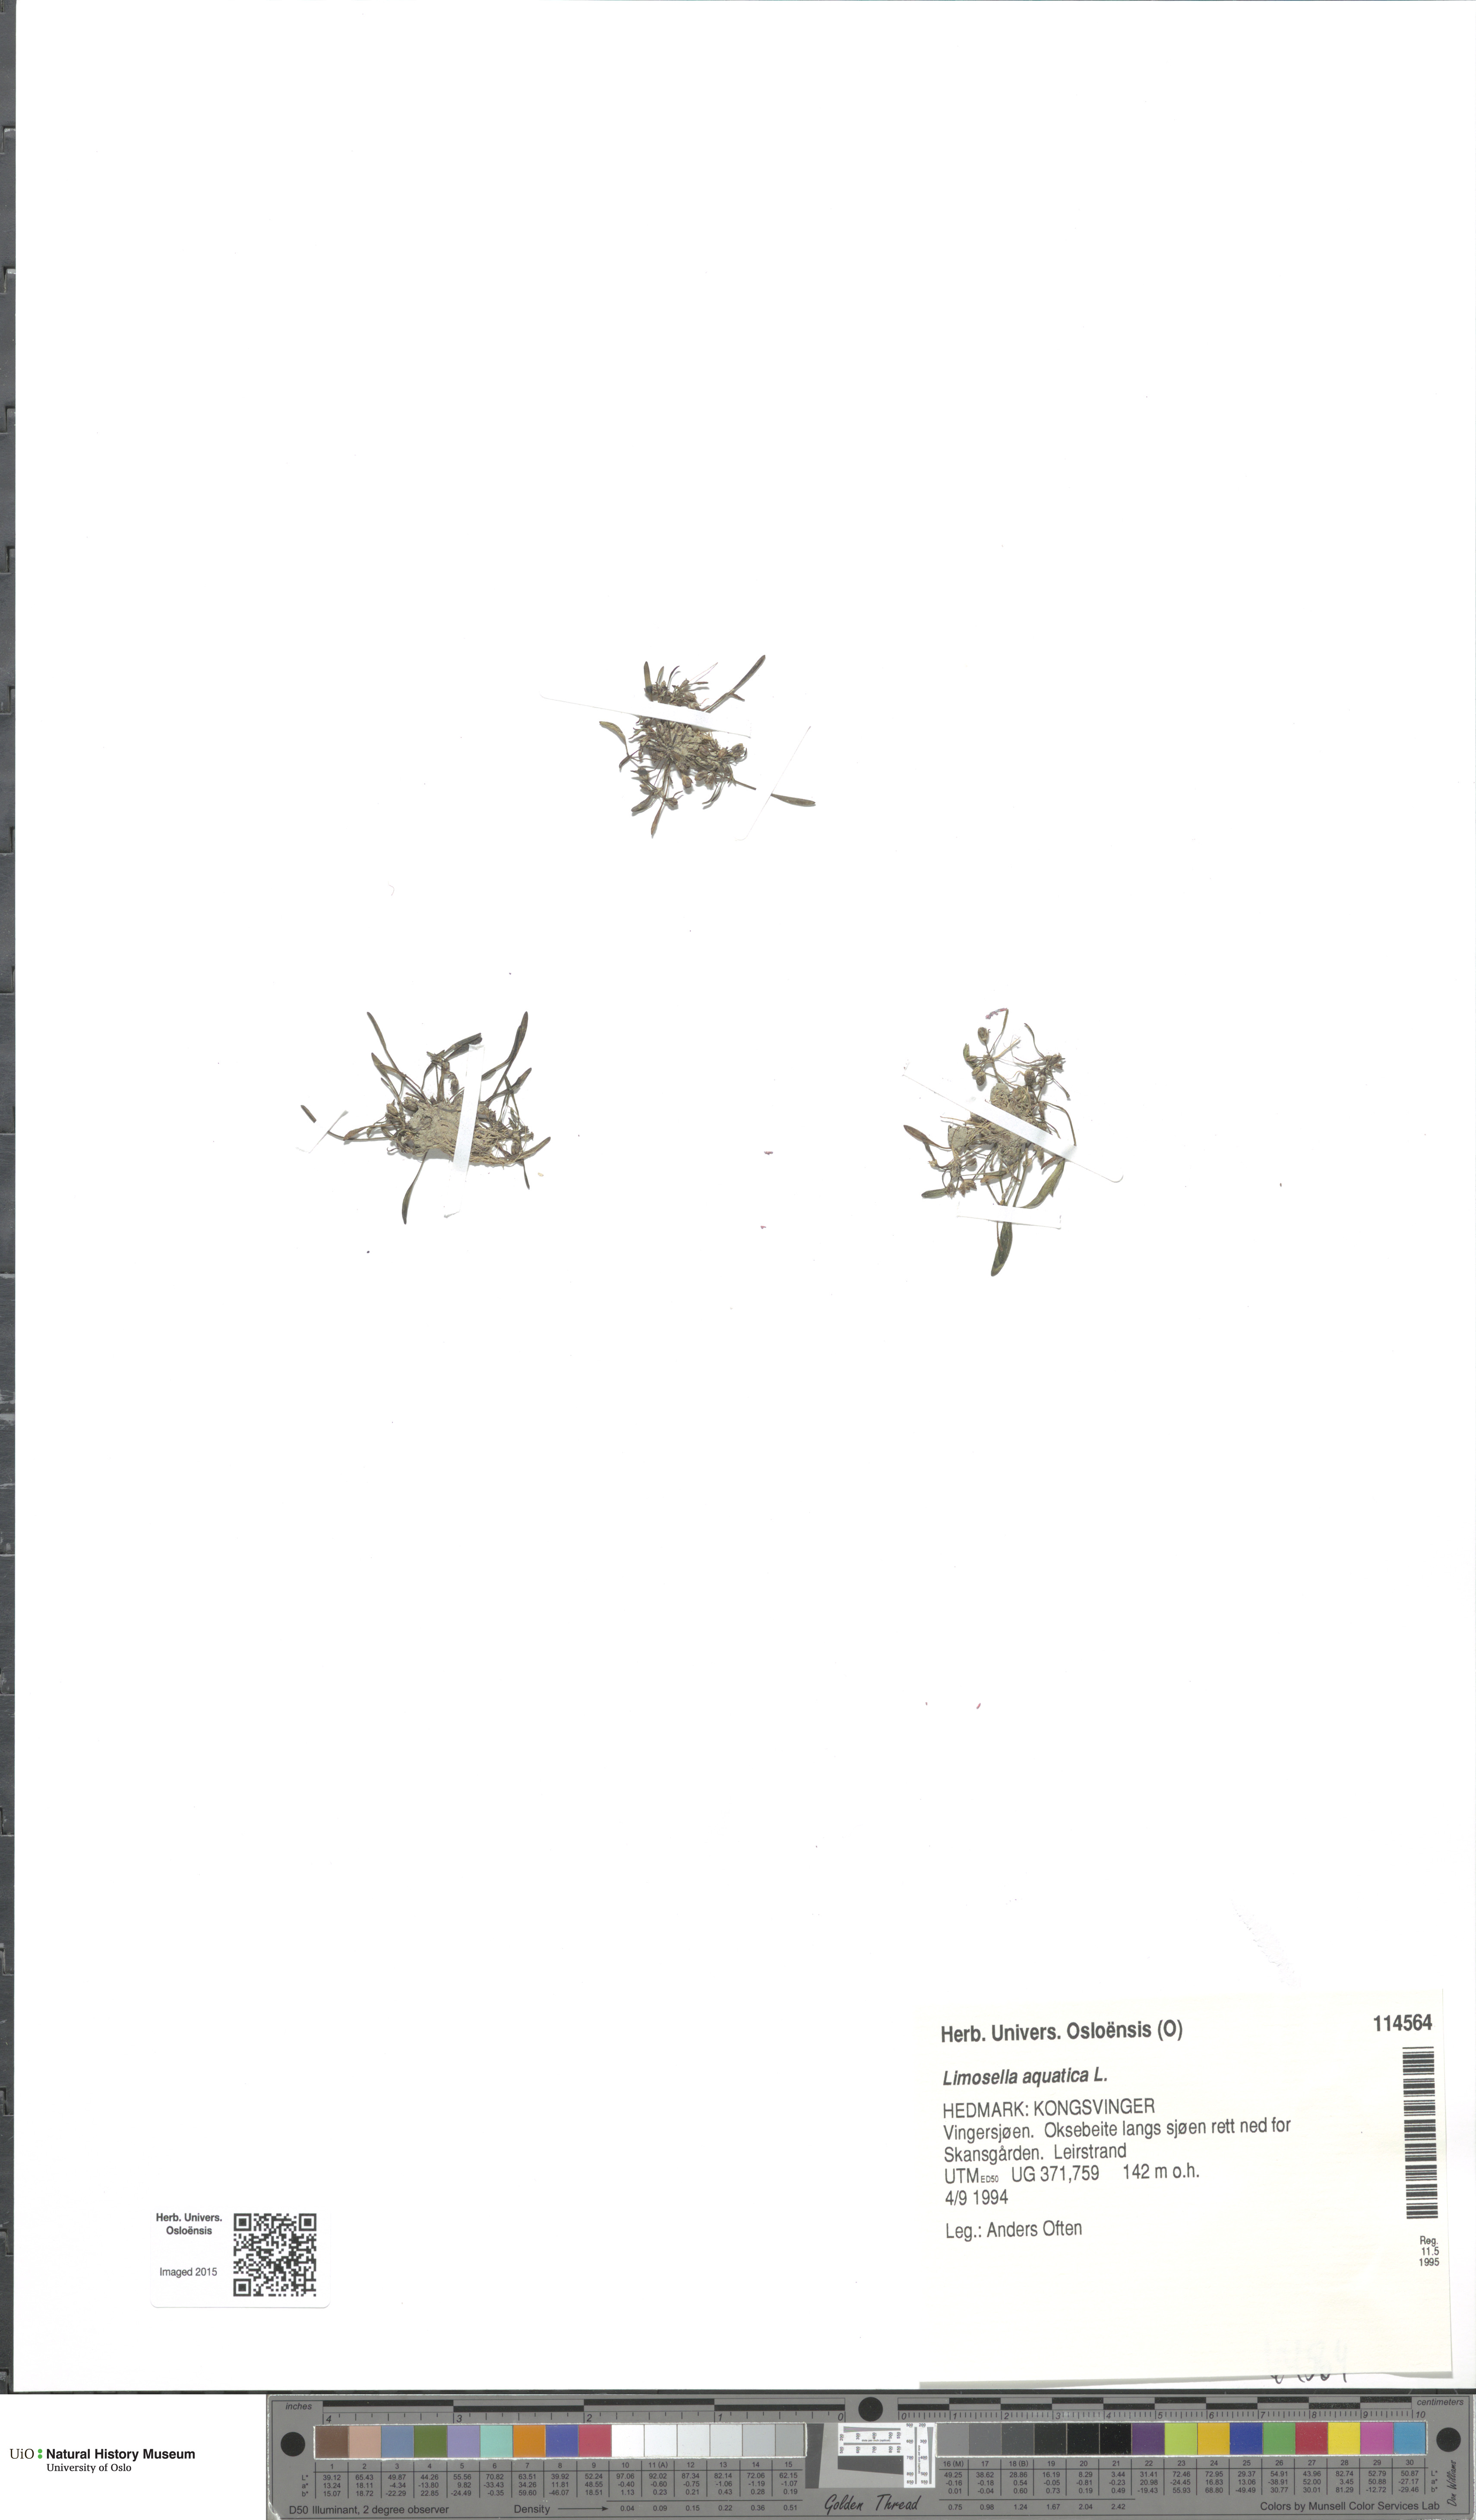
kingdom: Plantae
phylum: Tracheophyta
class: Magnoliopsida
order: Lamiales
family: Scrophulariaceae
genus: Limosella
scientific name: Limosella aquatica
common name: Mudwort
